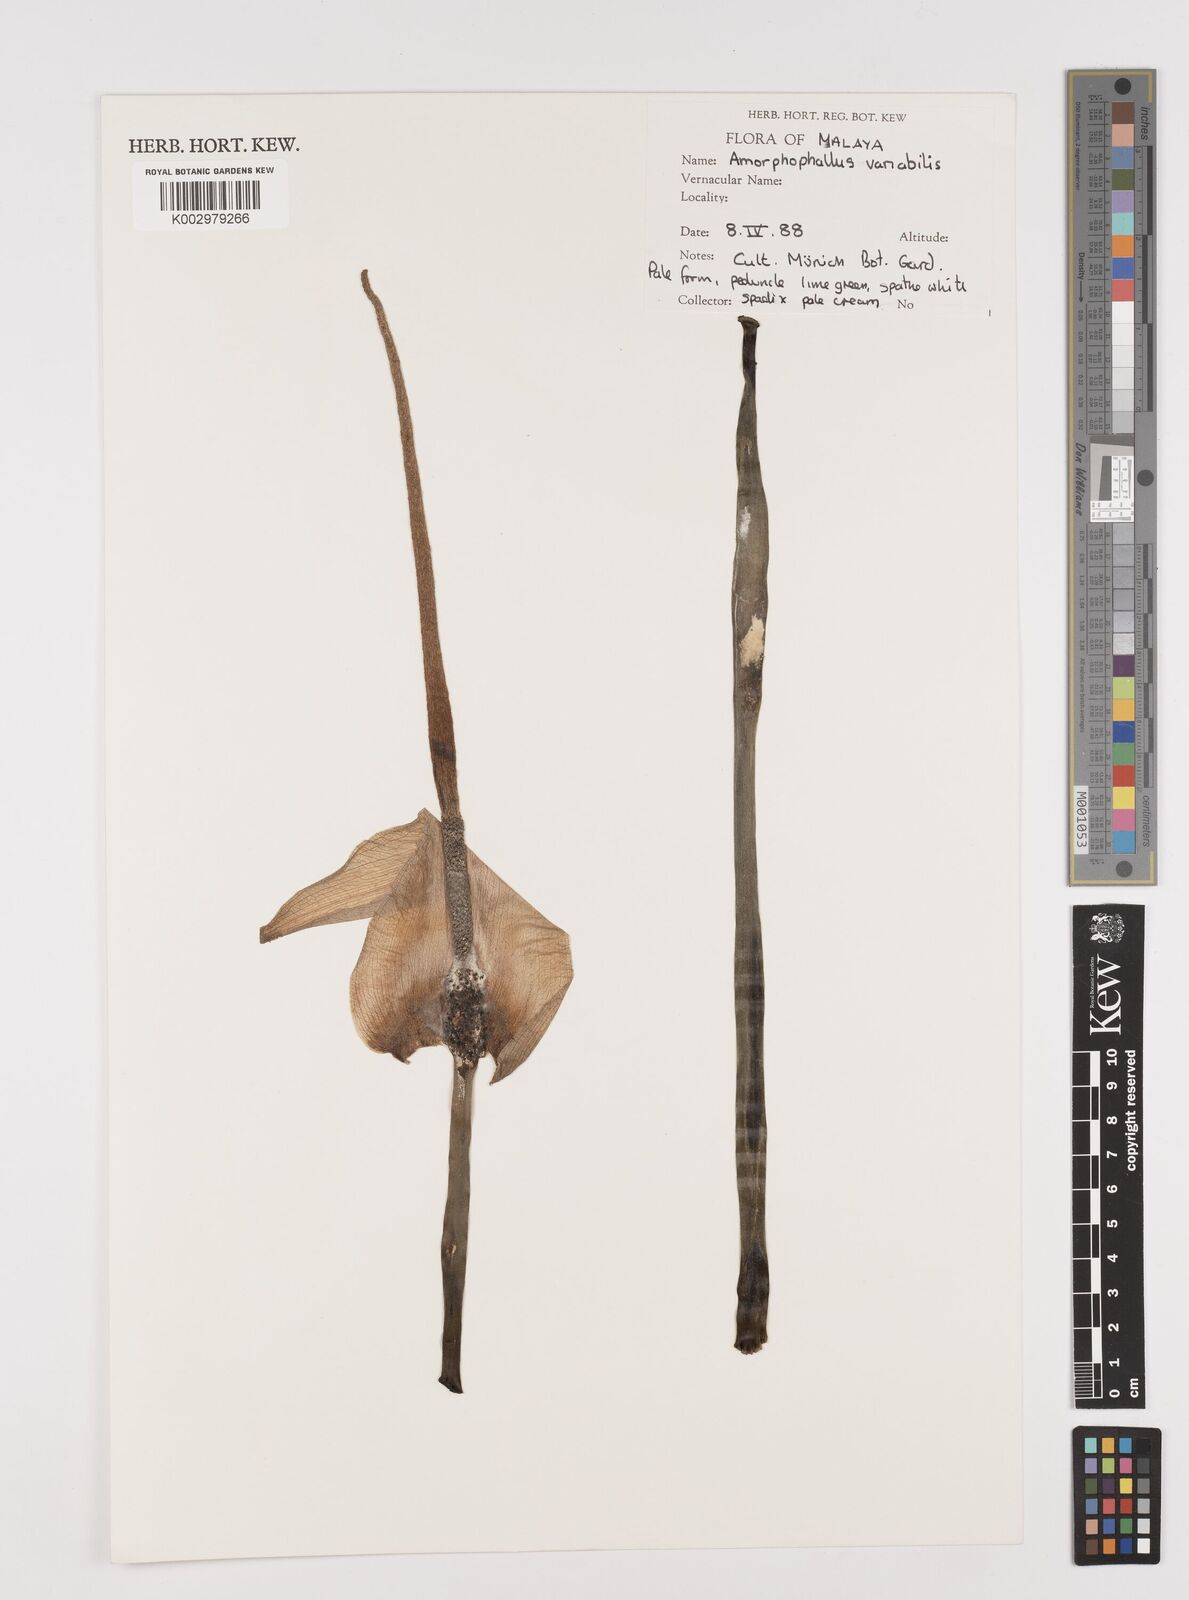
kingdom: Plantae
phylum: Tracheophyta
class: Liliopsida
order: Alismatales
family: Araceae
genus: Amorphophallus
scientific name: Amorphophallus variabilis
